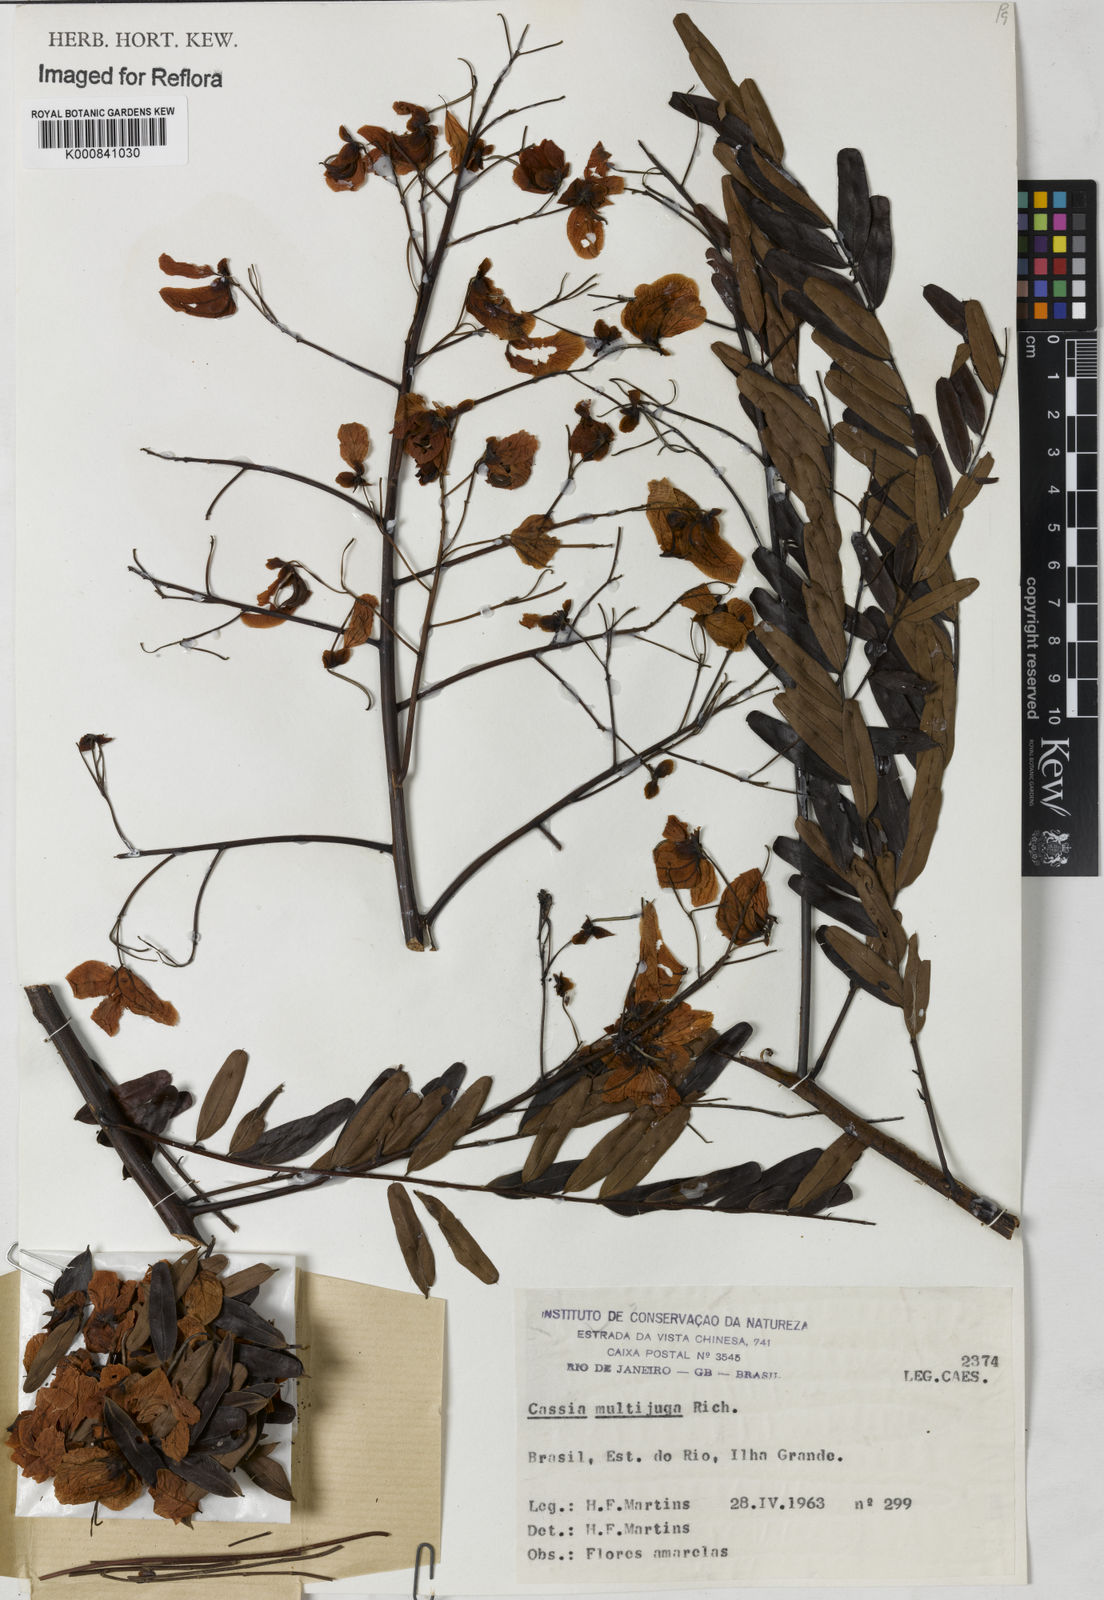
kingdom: Plantae
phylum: Tracheophyta
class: Magnoliopsida
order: Fabales
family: Fabaceae
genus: Senna
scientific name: Senna multijuga
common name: False sicklepod
